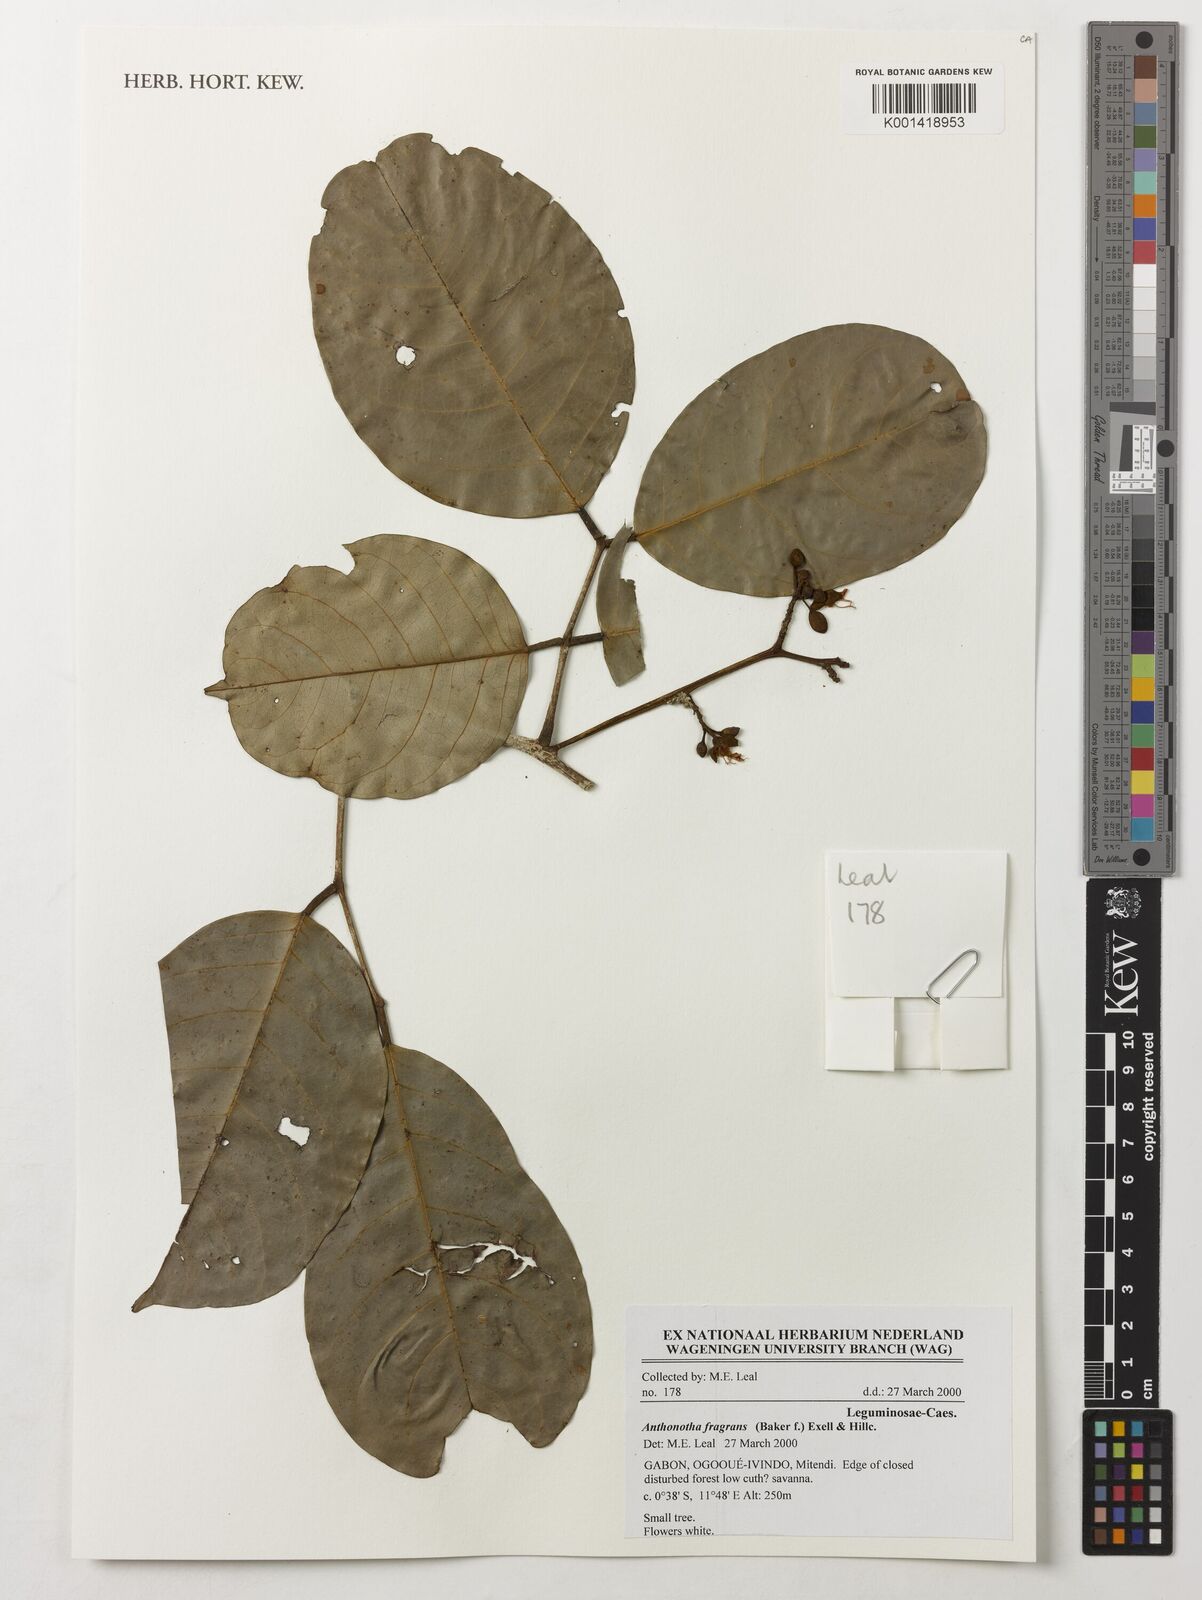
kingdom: Plantae
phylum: Tracheophyta
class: Magnoliopsida
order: Fabales
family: Fabaceae
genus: Anthonotha
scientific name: Anthonotha fragrans
